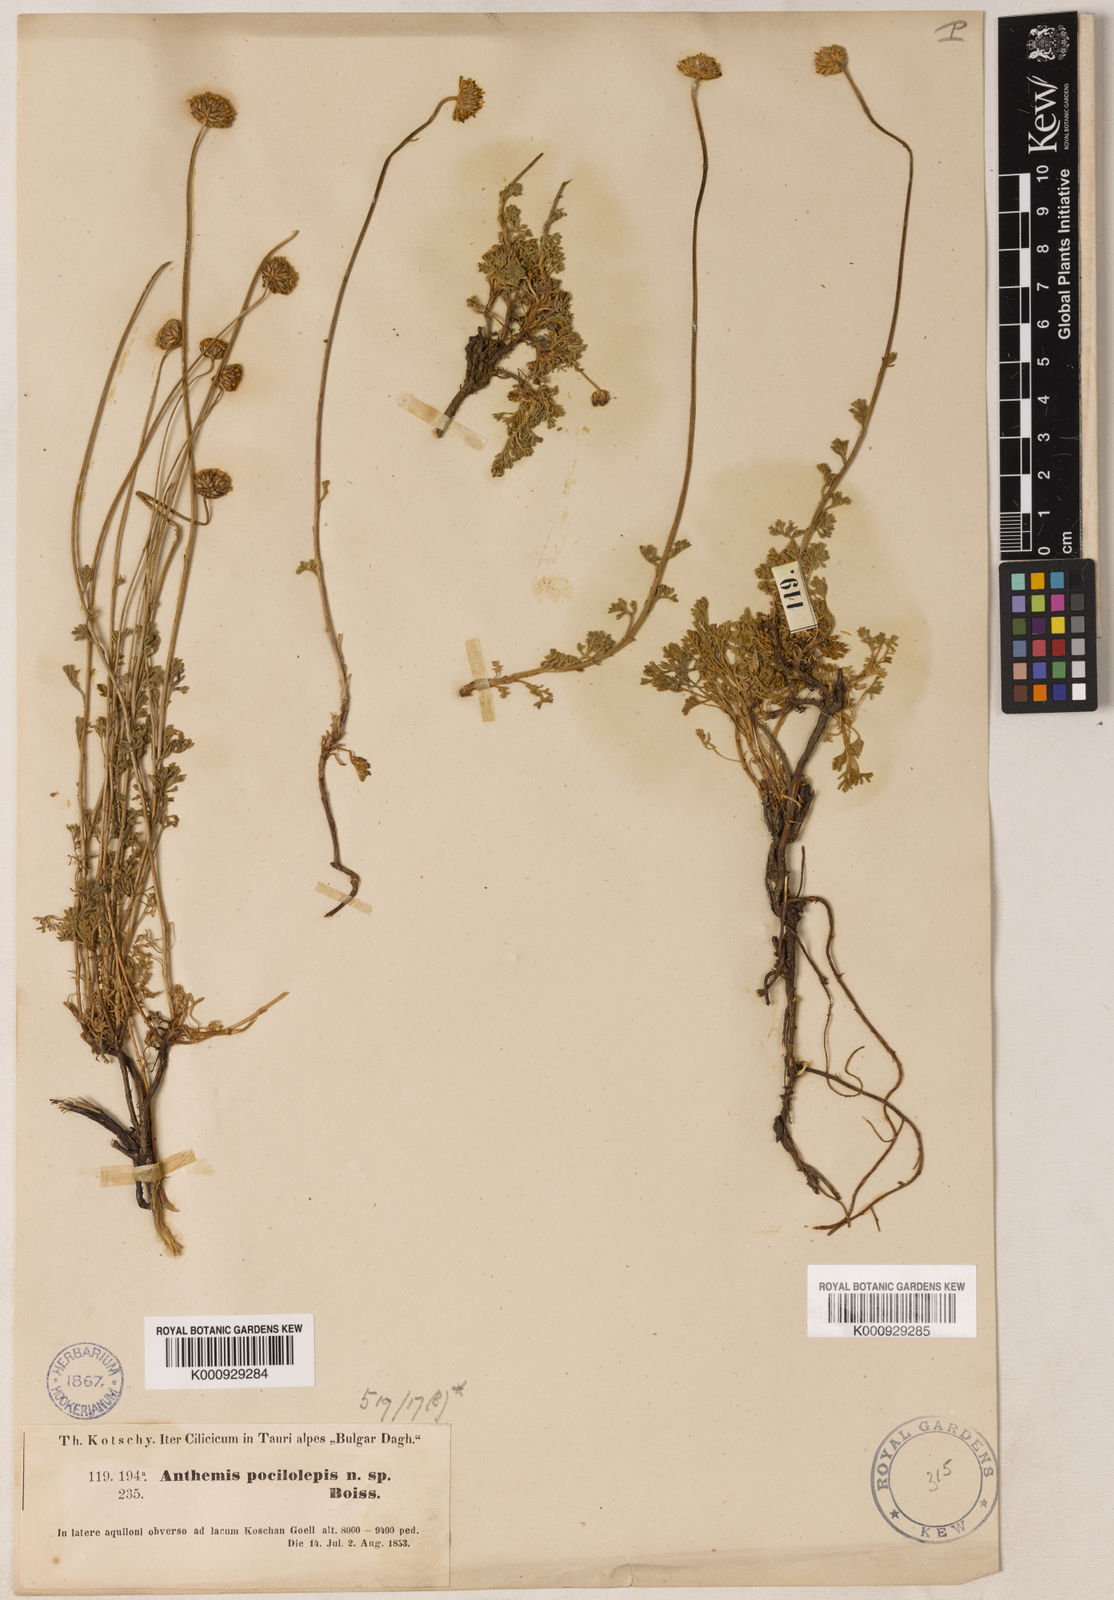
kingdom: Plantae
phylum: Tracheophyta
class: Magnoliopsida
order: Asterales
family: Asteraceae
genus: Anthemis
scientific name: Anthemis kotschyana
